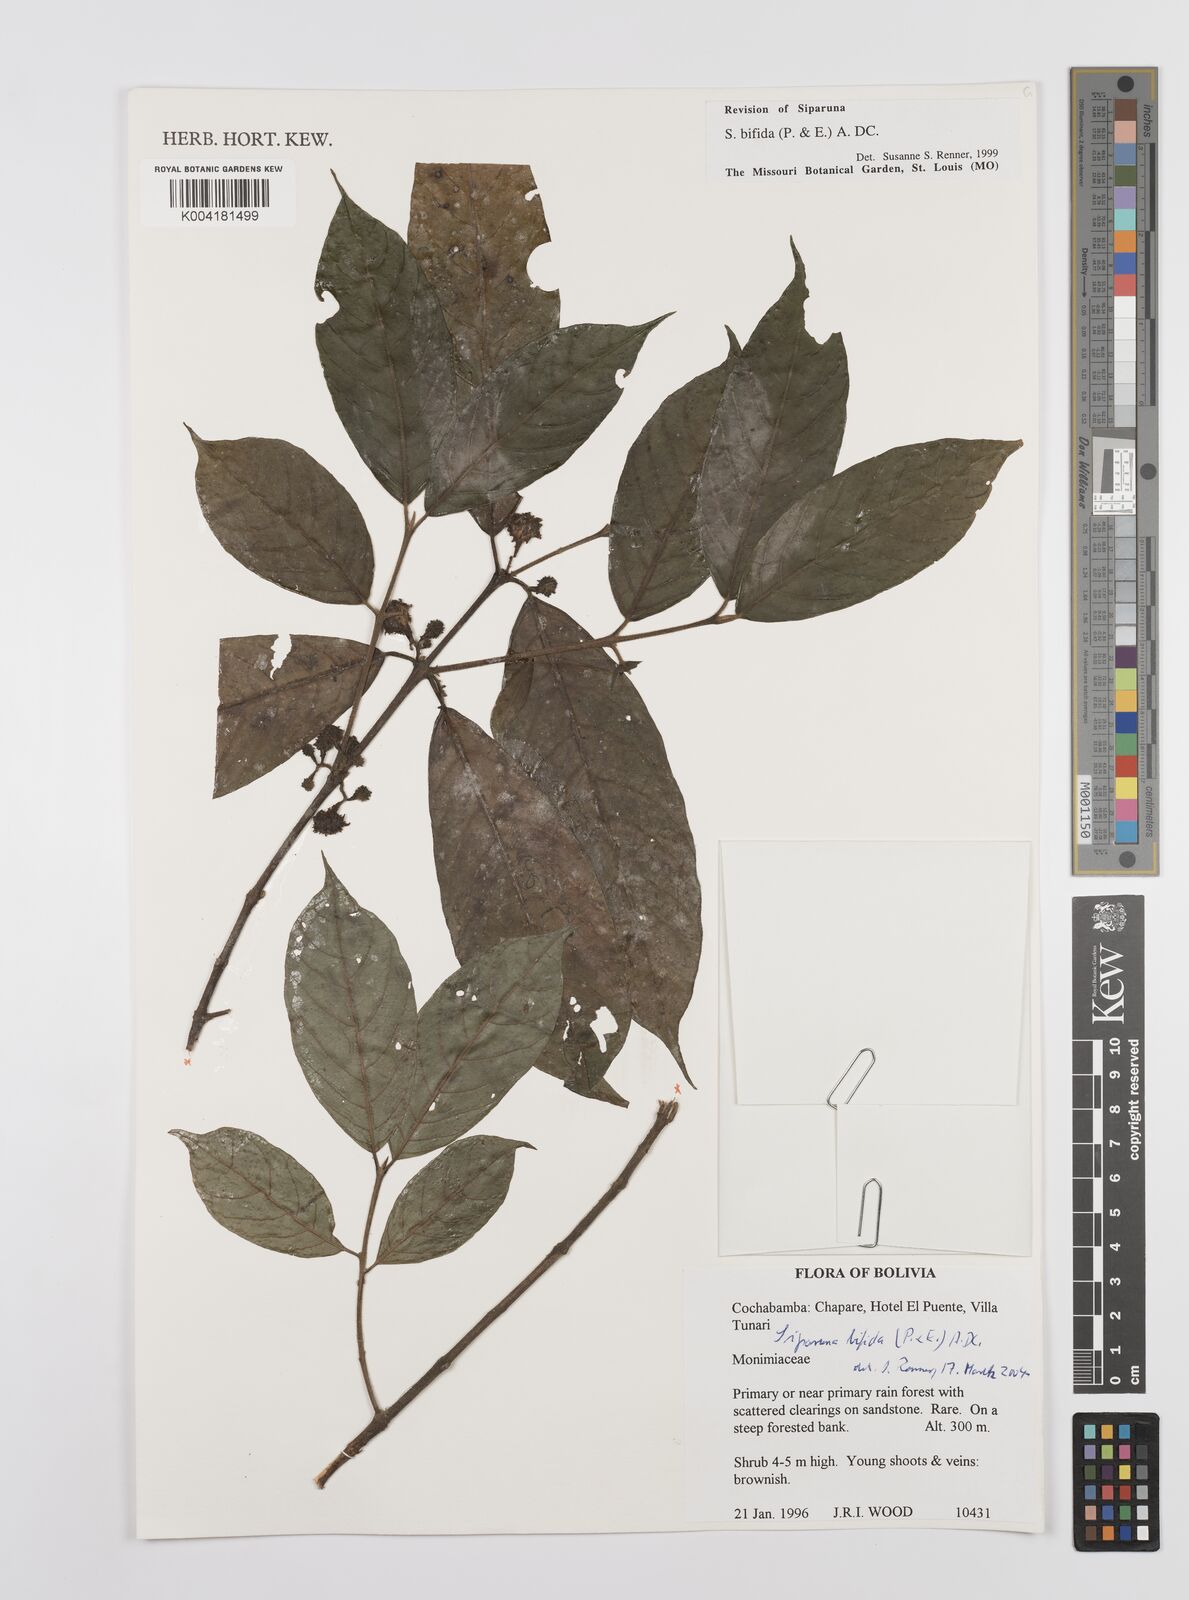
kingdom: Plantae
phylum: Tracheophyta
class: Magnoliopsida
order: Laurales
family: Siparunaceae
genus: Siparuna
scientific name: Siparuna bifida
